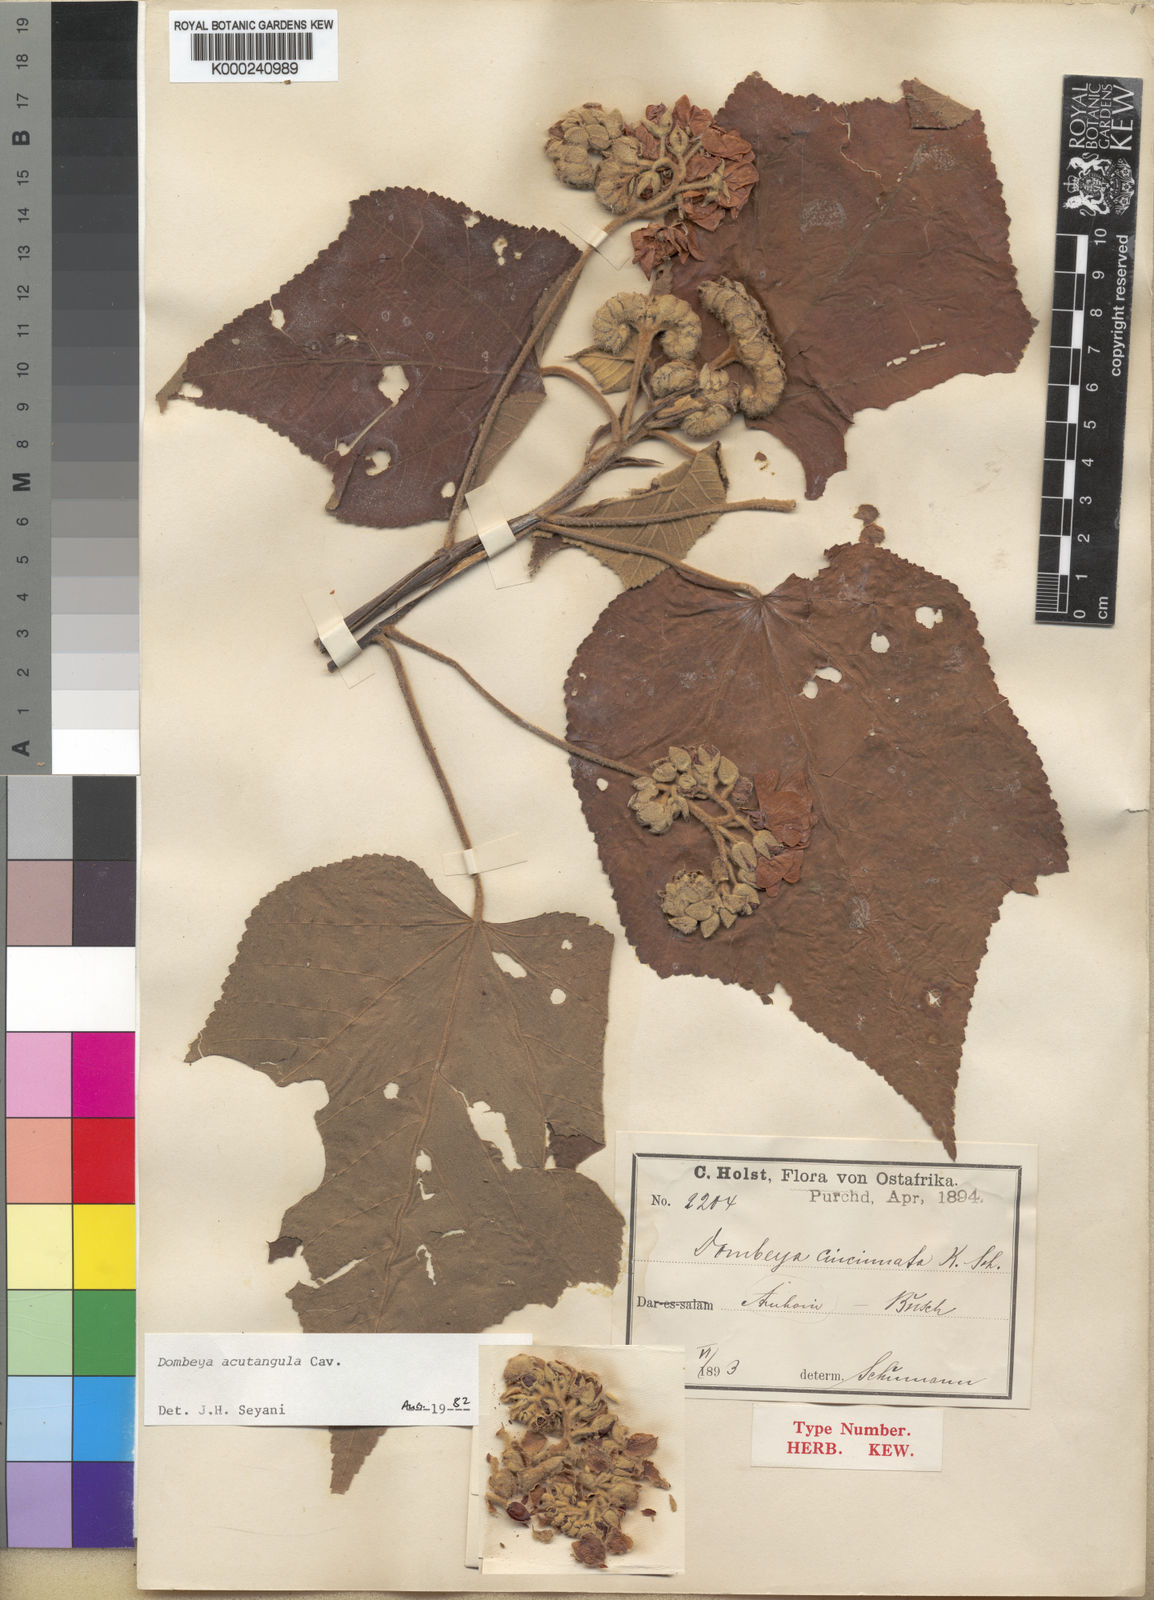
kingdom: Plantae
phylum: Tracheophyta
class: Magnoliopsida
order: Malvales
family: Malvaceae
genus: Dombeya
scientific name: Dombeya acutangula
